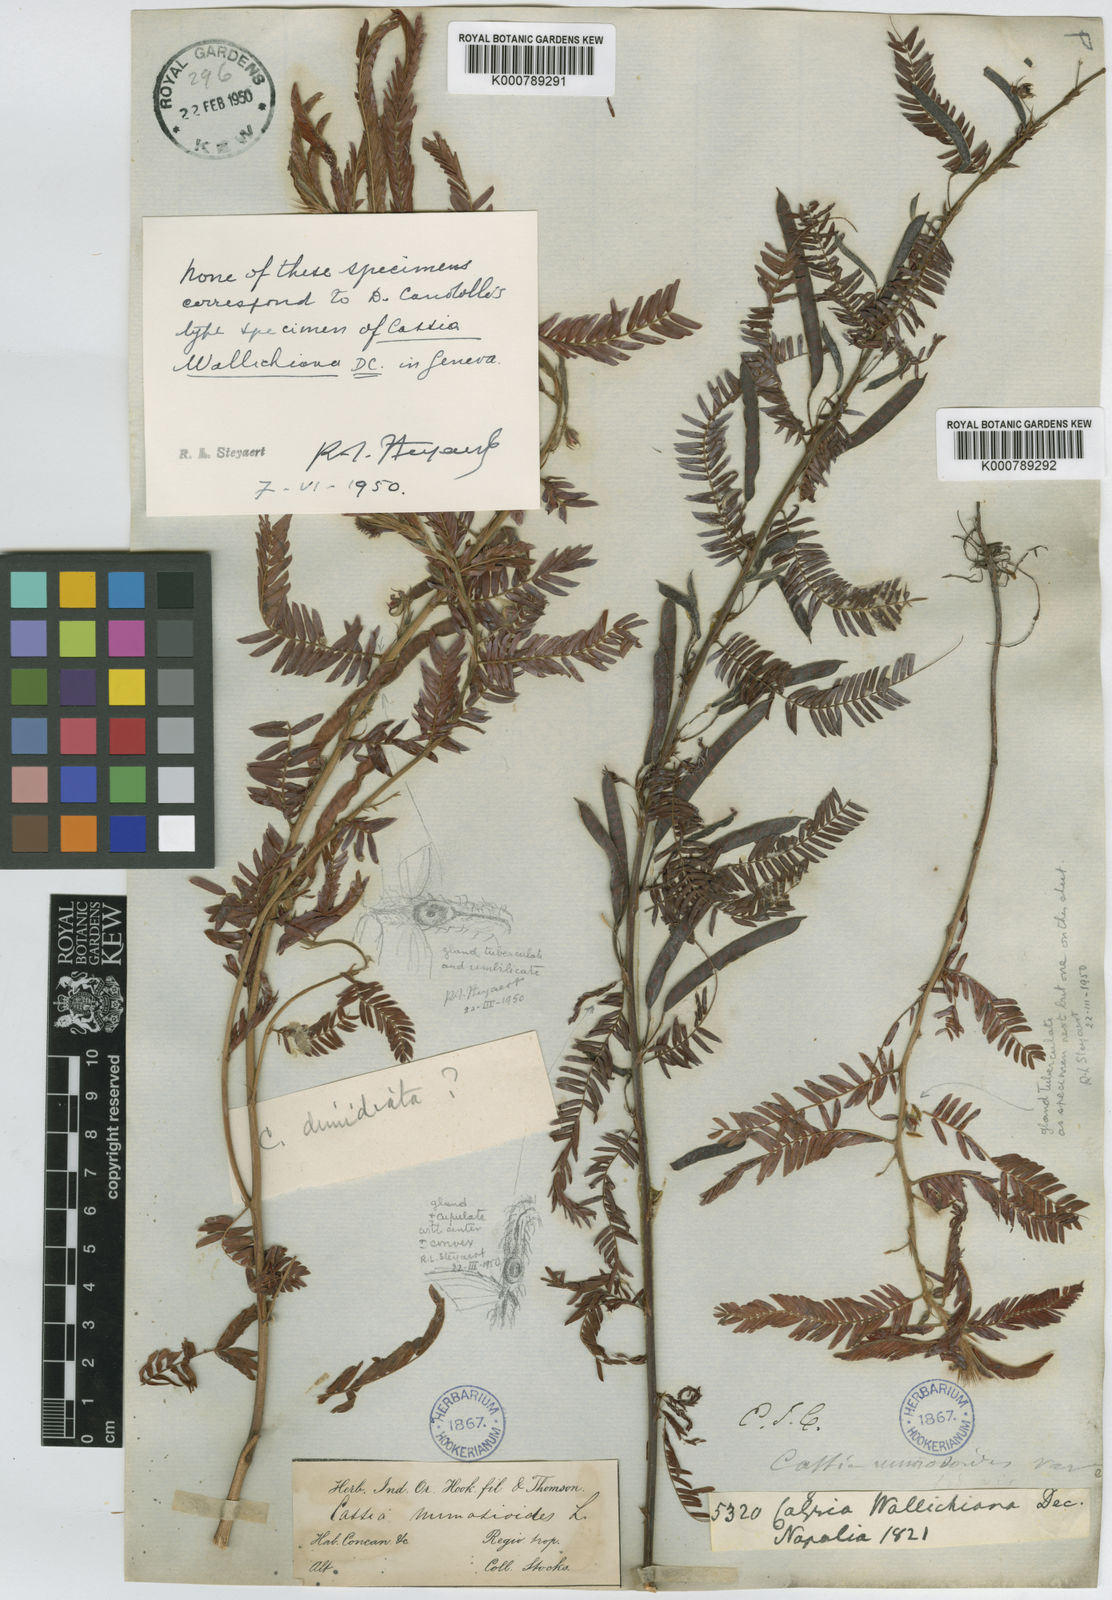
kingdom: Plantae
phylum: Tracheophyta
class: Magnoliopsida
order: Fabales
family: Fabaceae
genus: Chamaecrista
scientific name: Chamaecrista wallichiana
